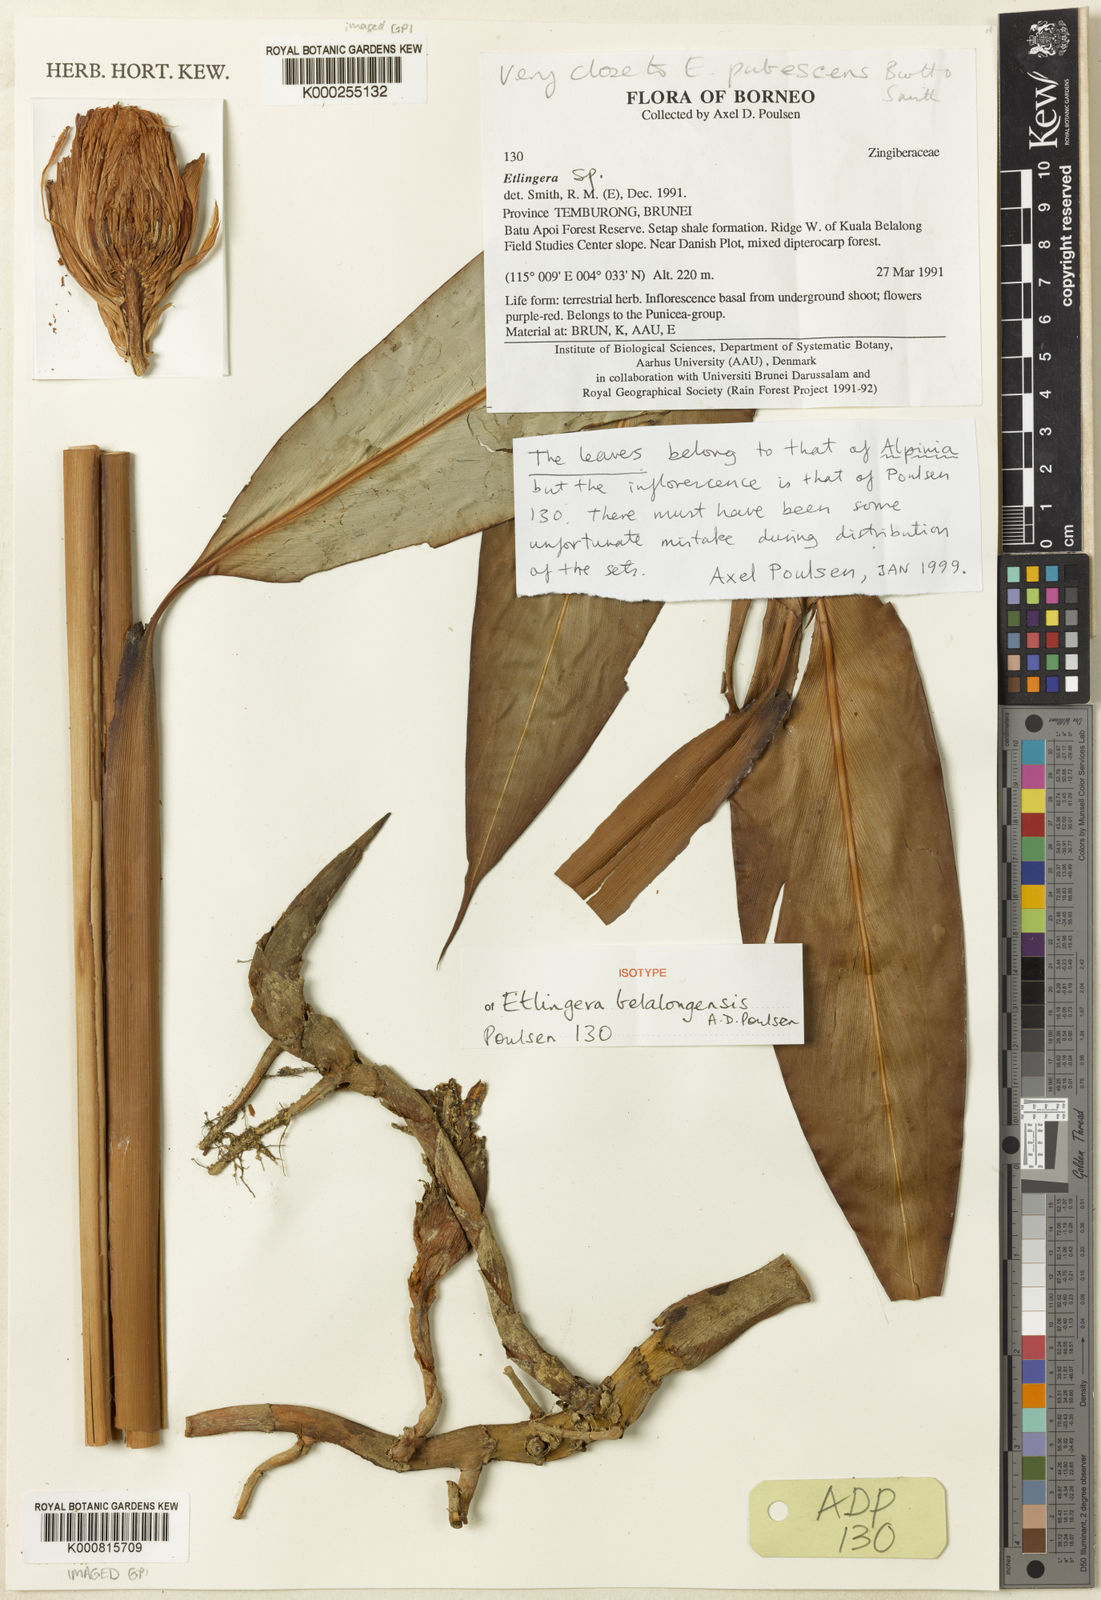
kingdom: Plantae
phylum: Tracheophyta
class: Liliopsida
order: Zingiberales
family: Zingiberaceae
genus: Etlingera
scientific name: Etlingera belalongensis
